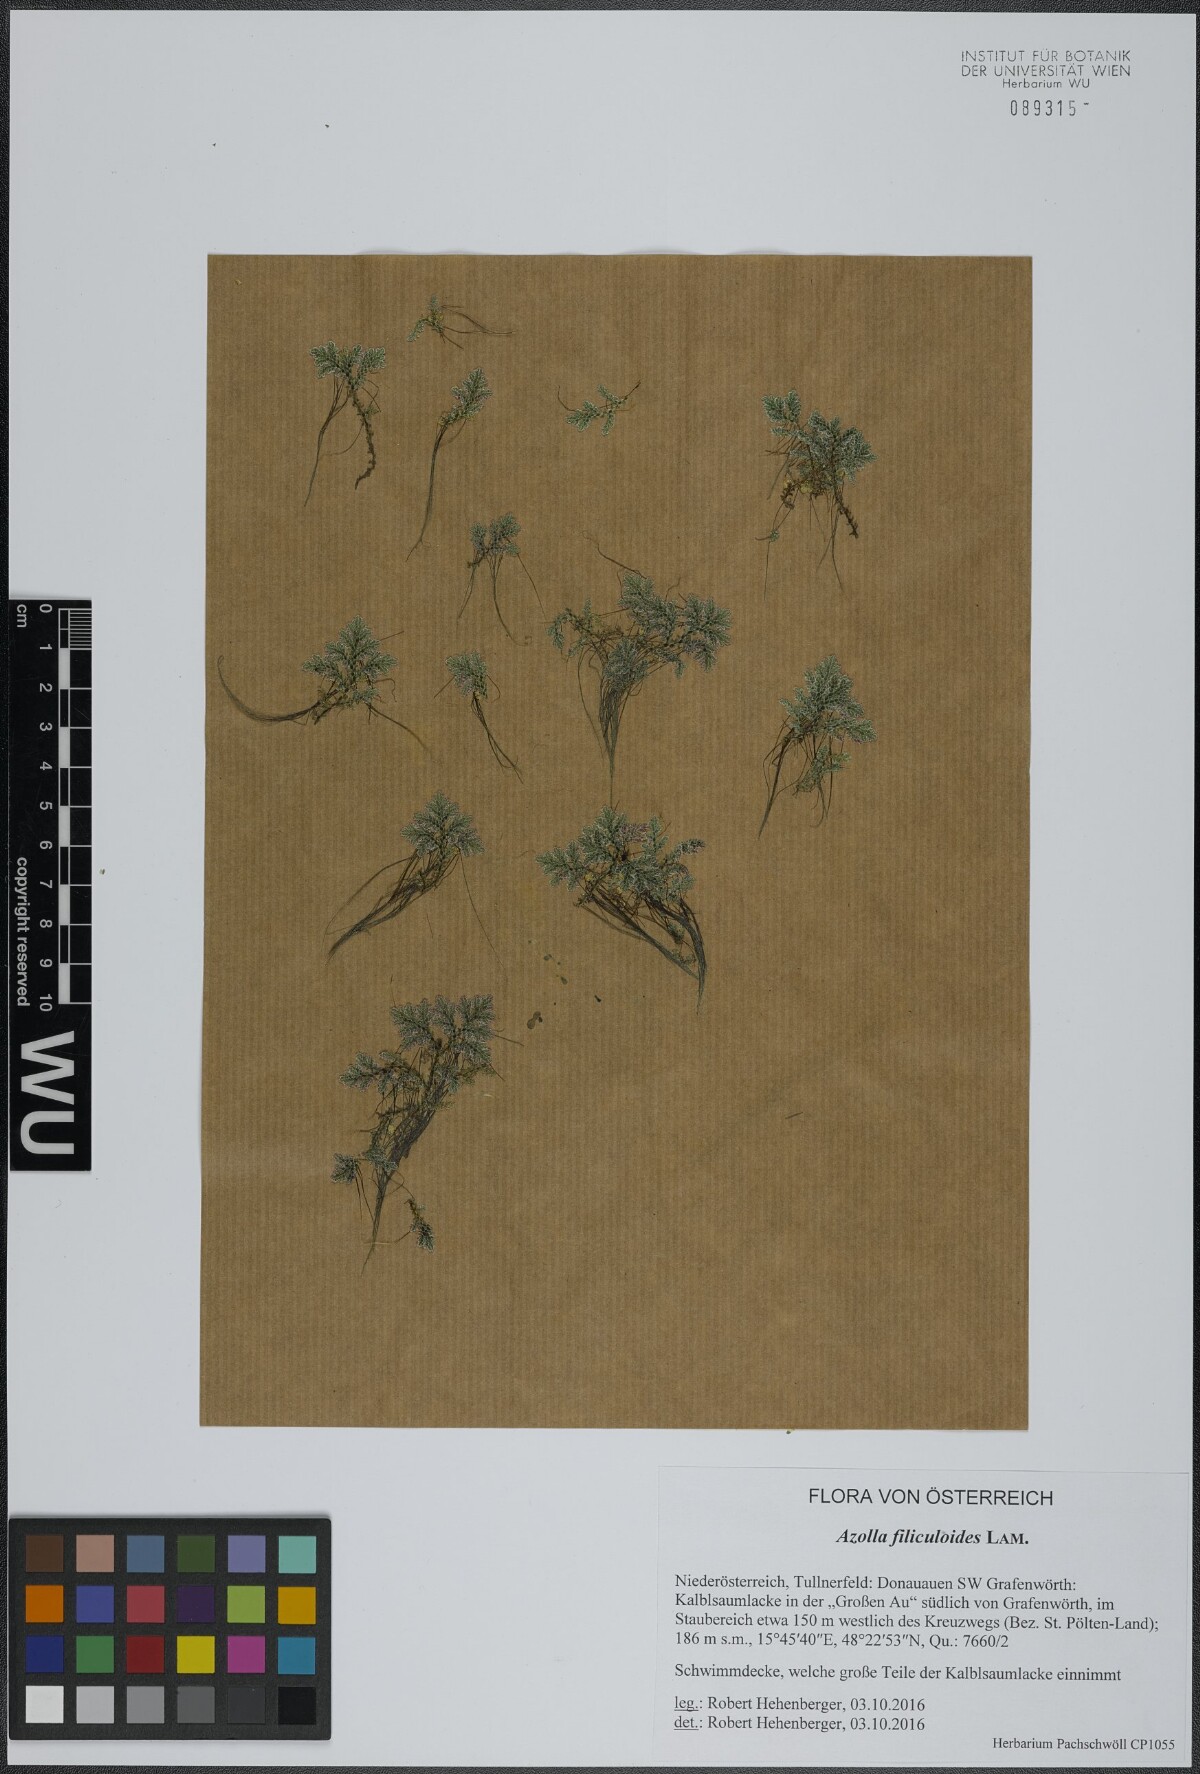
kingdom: Plantae
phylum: Tracheophyta
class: Polypodiopsida
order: Salviniales
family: Salviniaceae
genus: Azolla
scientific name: Azolla filiculoides
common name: Water fern
